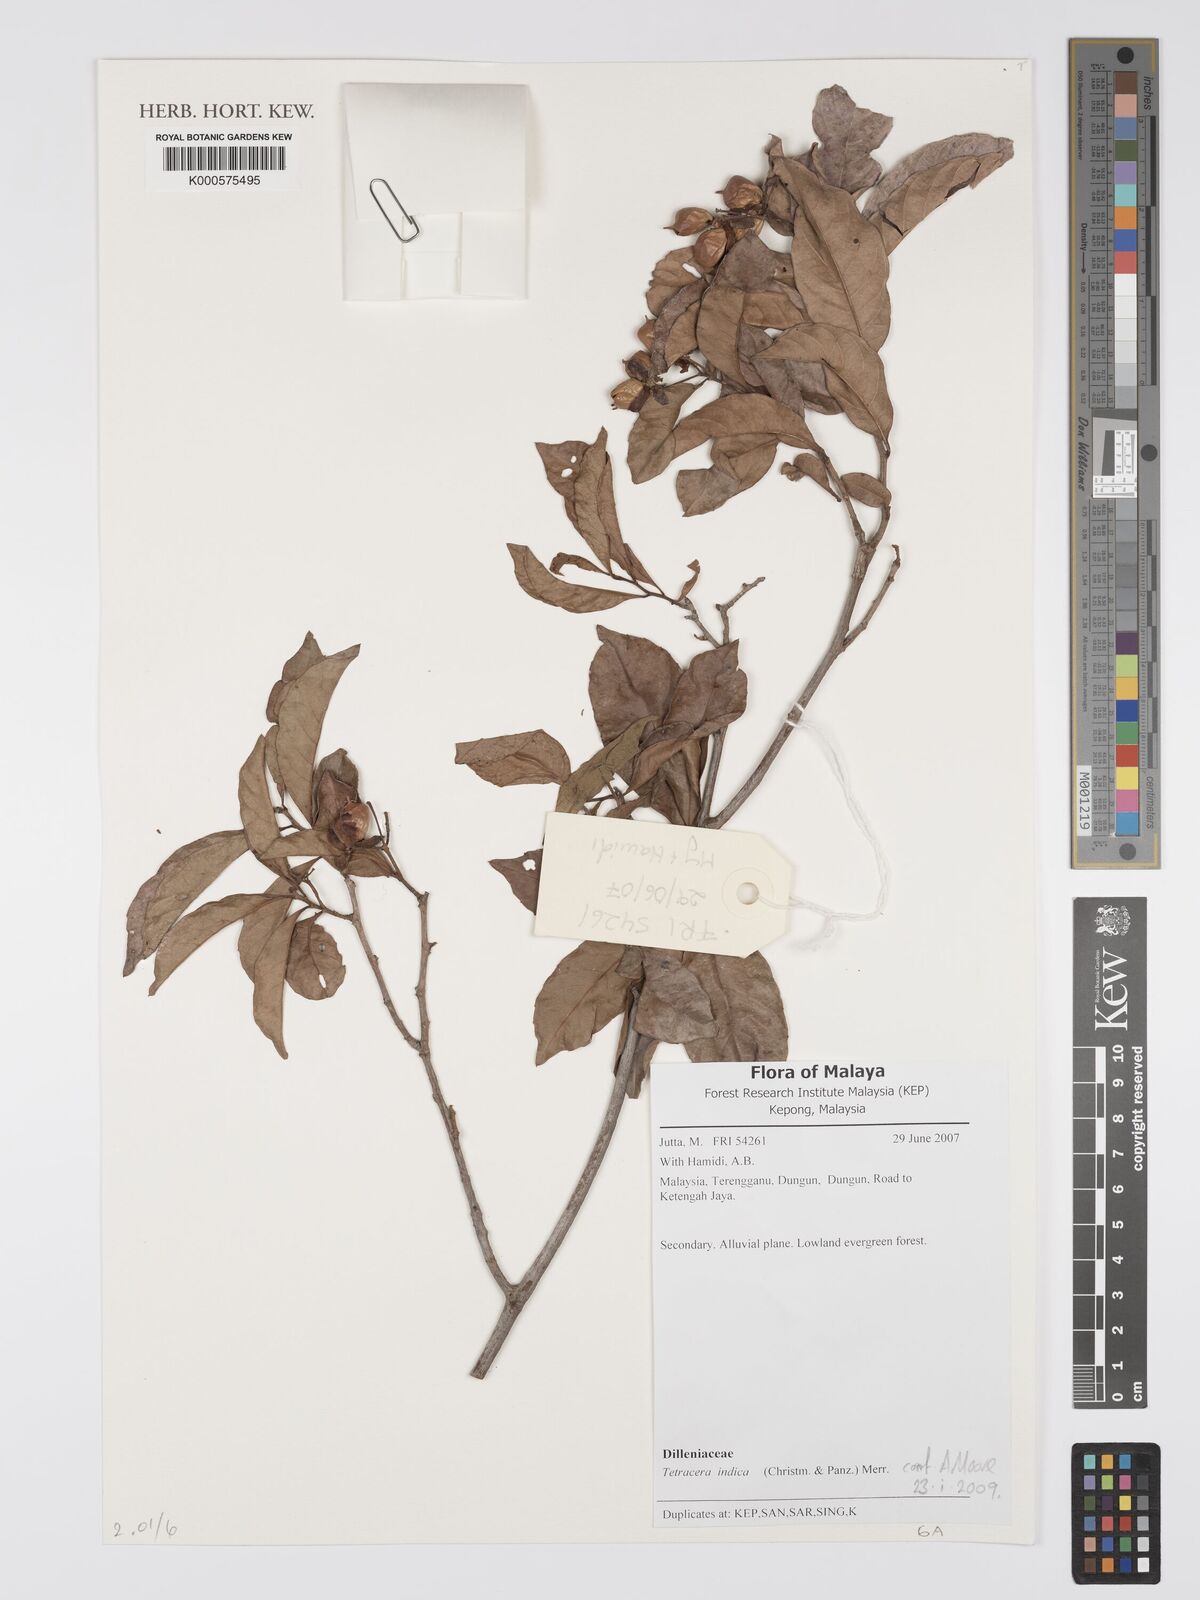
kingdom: Plantae
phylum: Tracheophyta
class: Magnoliopsida
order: Dilleniales
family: Dilleniaceae
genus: Tetracera
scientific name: Tetracera indica
